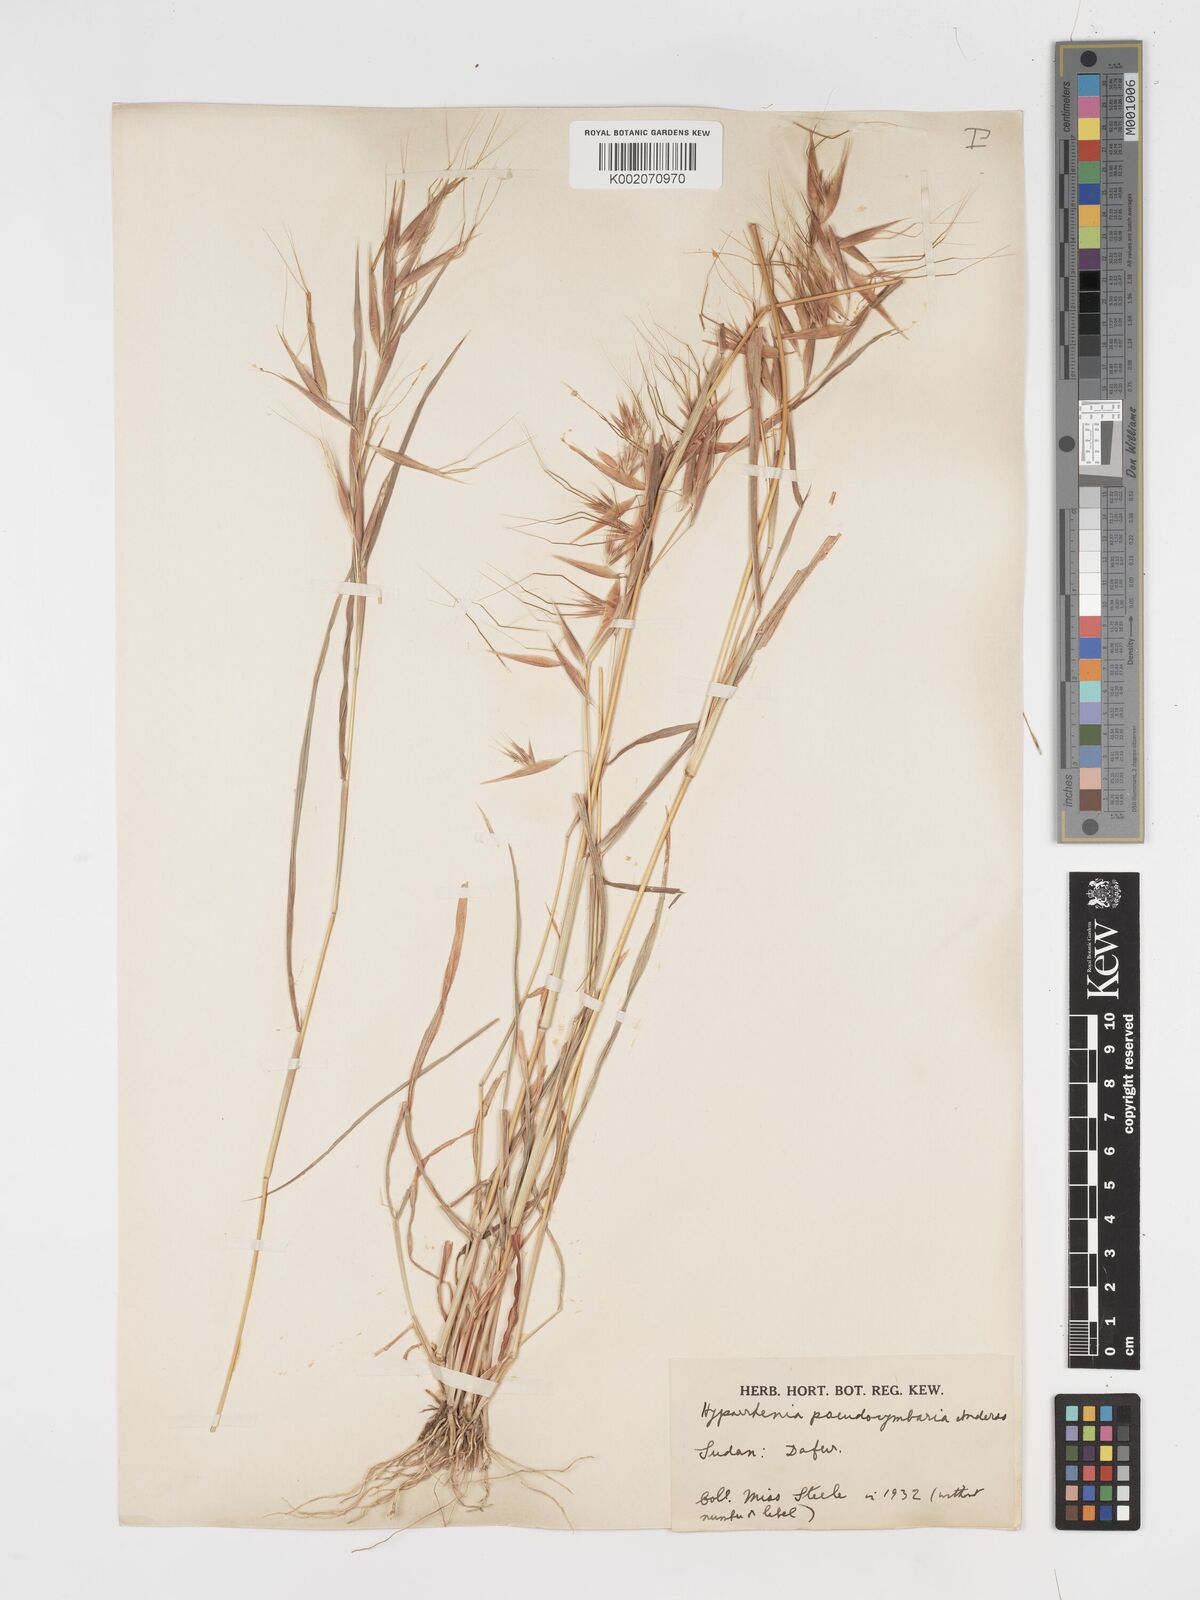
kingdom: Plantae
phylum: Tracheophyta
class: Liliopsida
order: Poales
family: Poaceae
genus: Hyparrhenia
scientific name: Hyparrhenia anthistirioides
